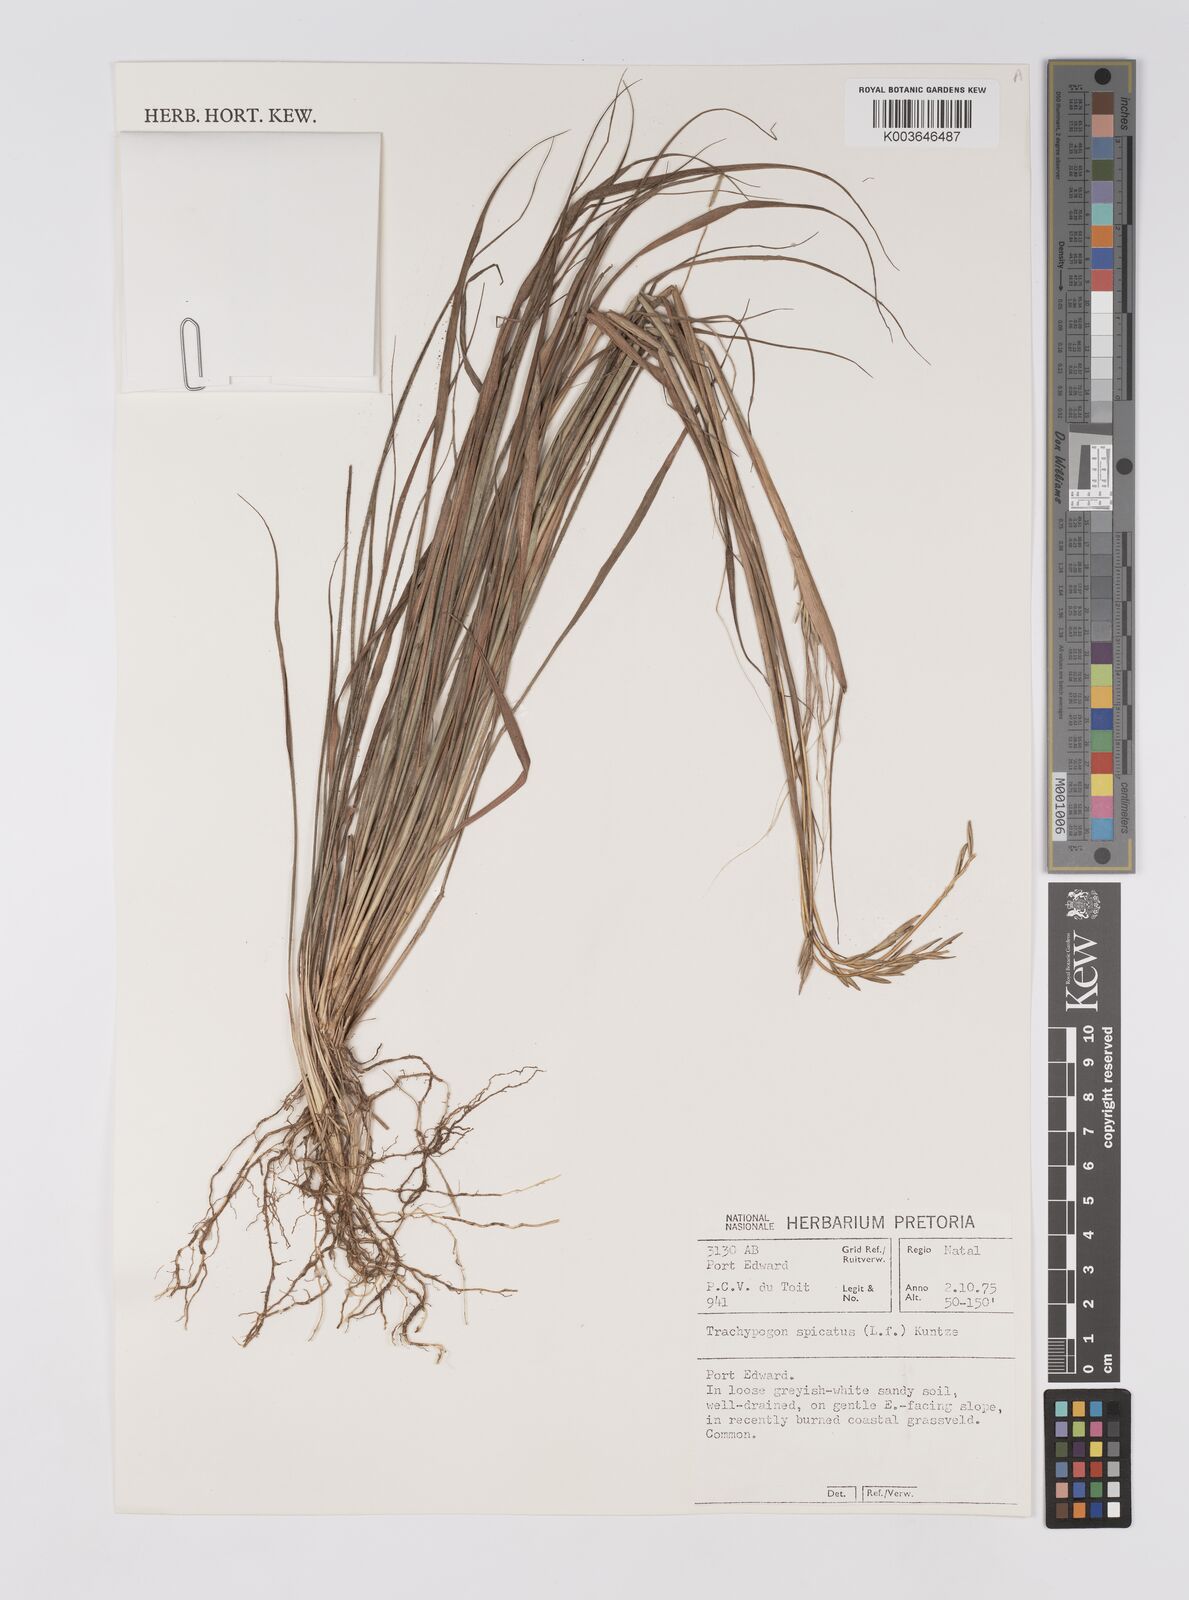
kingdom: Plantae
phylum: Tracheophyta
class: Liliopsida
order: Poales
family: Poaceae
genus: Trachypogon
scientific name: Trachypogon spicatus
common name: Crinkle-awn
